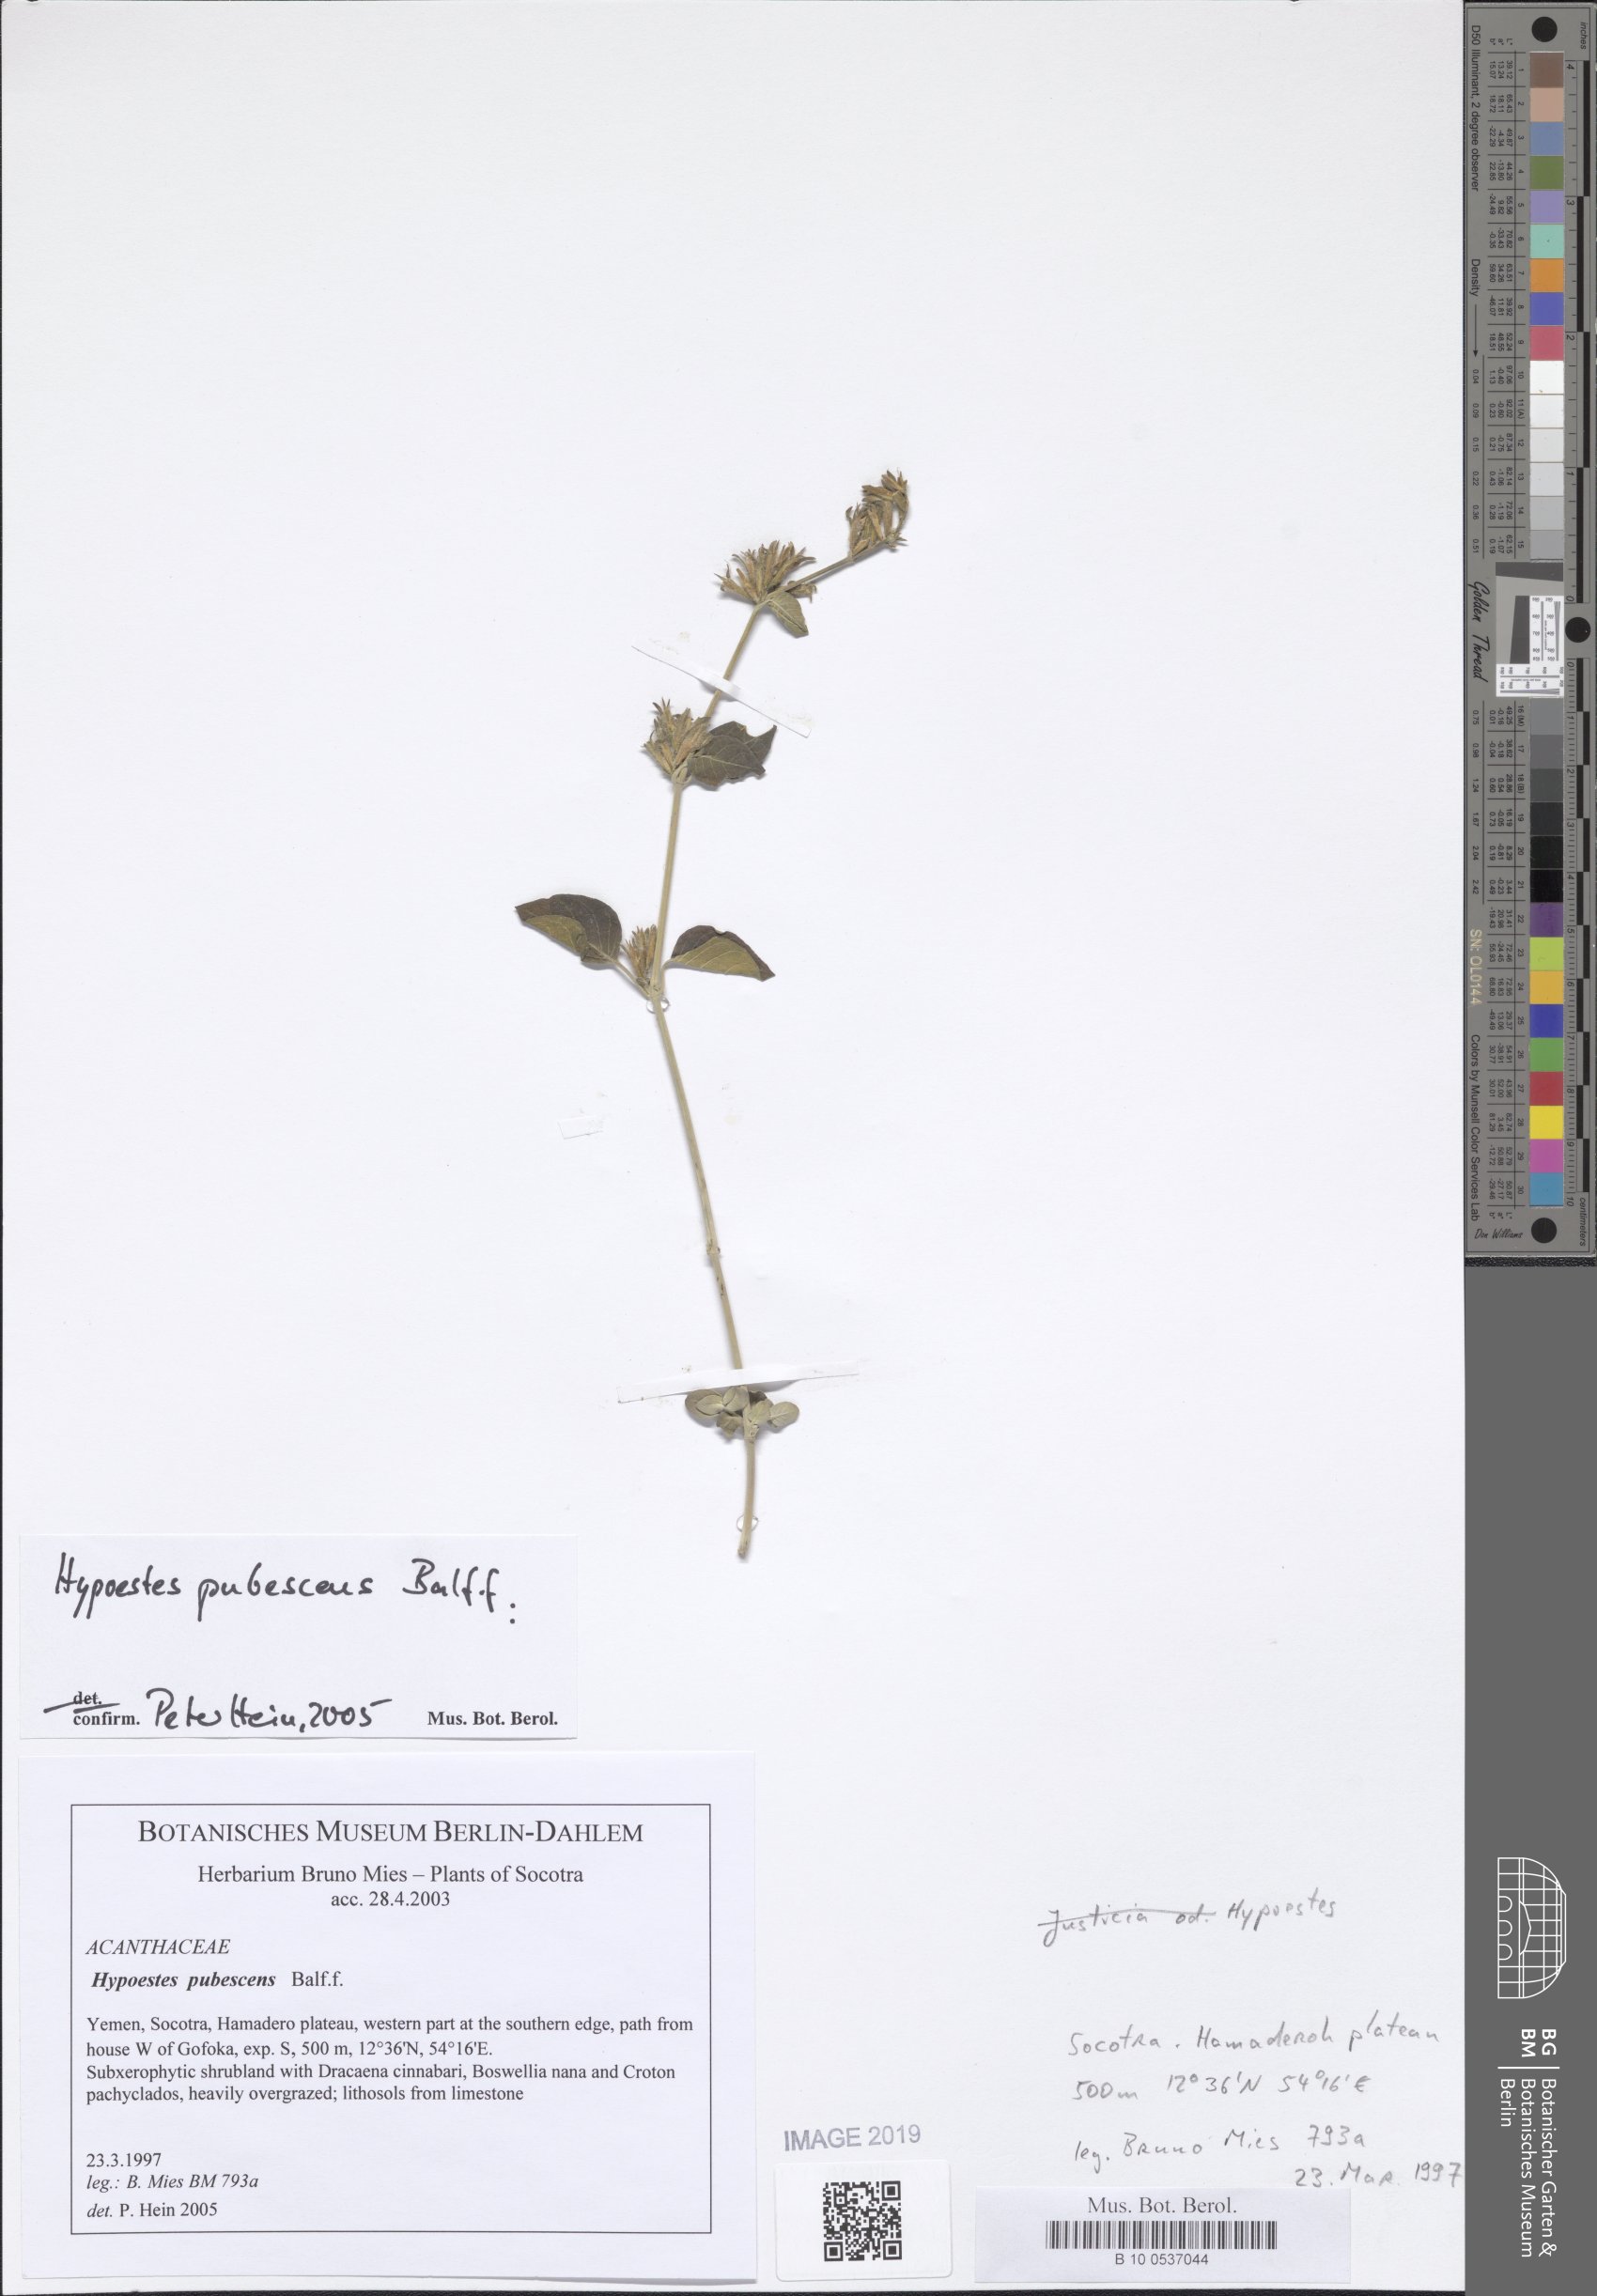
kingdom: Plantae
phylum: Tracheophyta
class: Magnoliopsida
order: Lamiales
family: Acanthaceae
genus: Hypoestes
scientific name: Hypoestes pubescens
